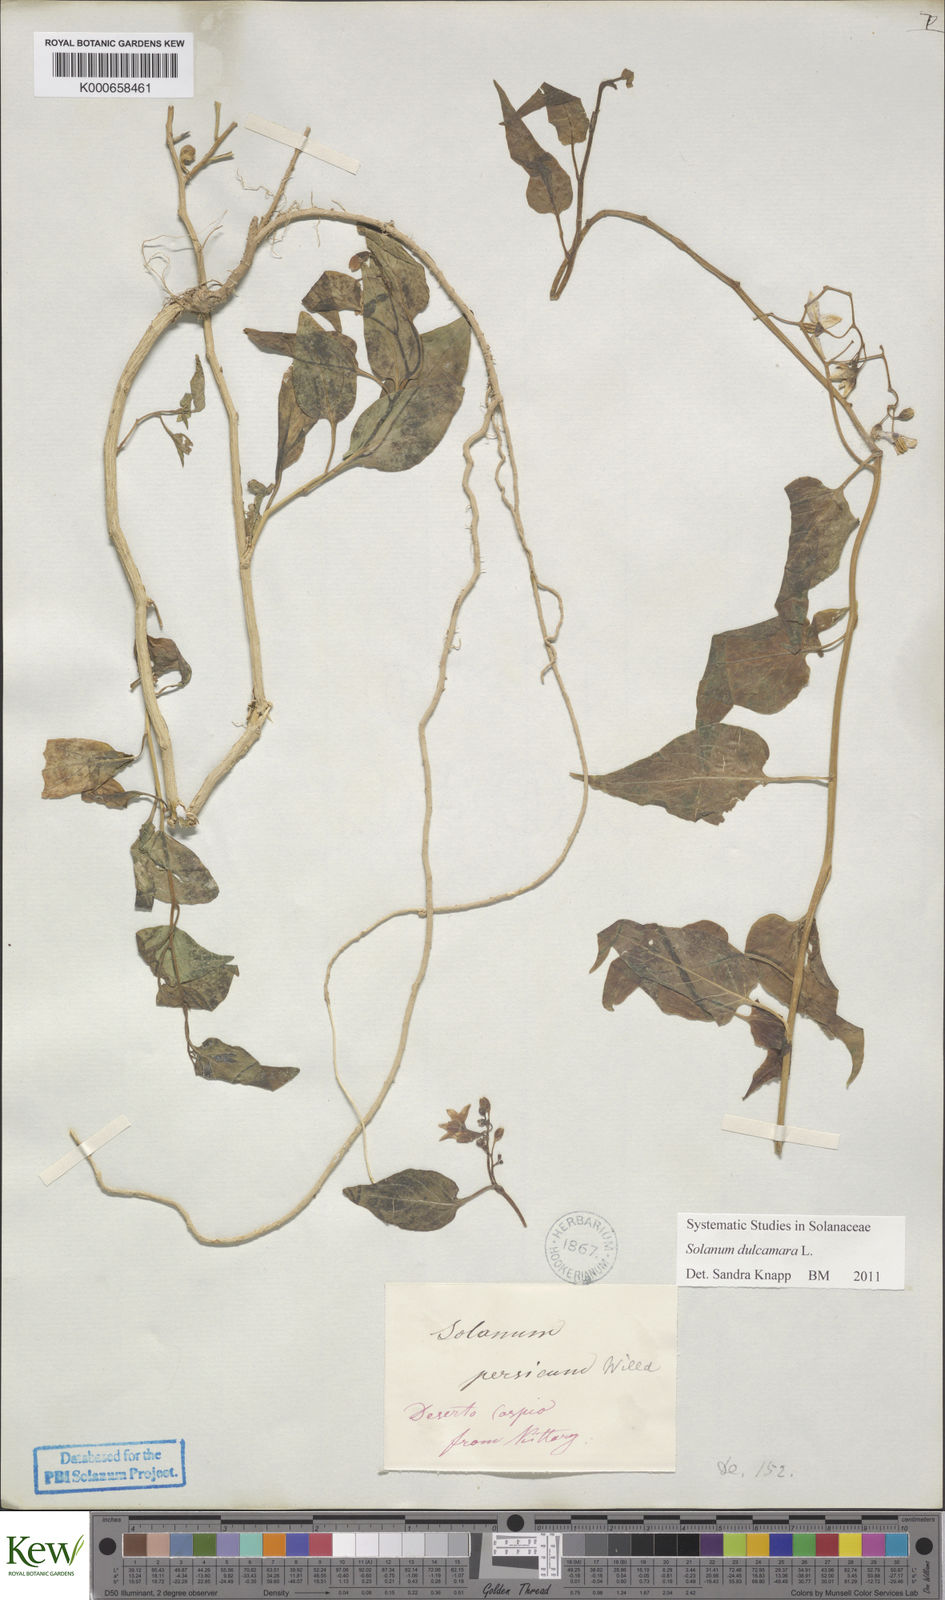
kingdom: Plantae
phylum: Tracheophyta
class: Magnoliopsida
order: Solanales
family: Solanaceae
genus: Solanum
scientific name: Solanum dulcamara
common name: Climbing nightshade
